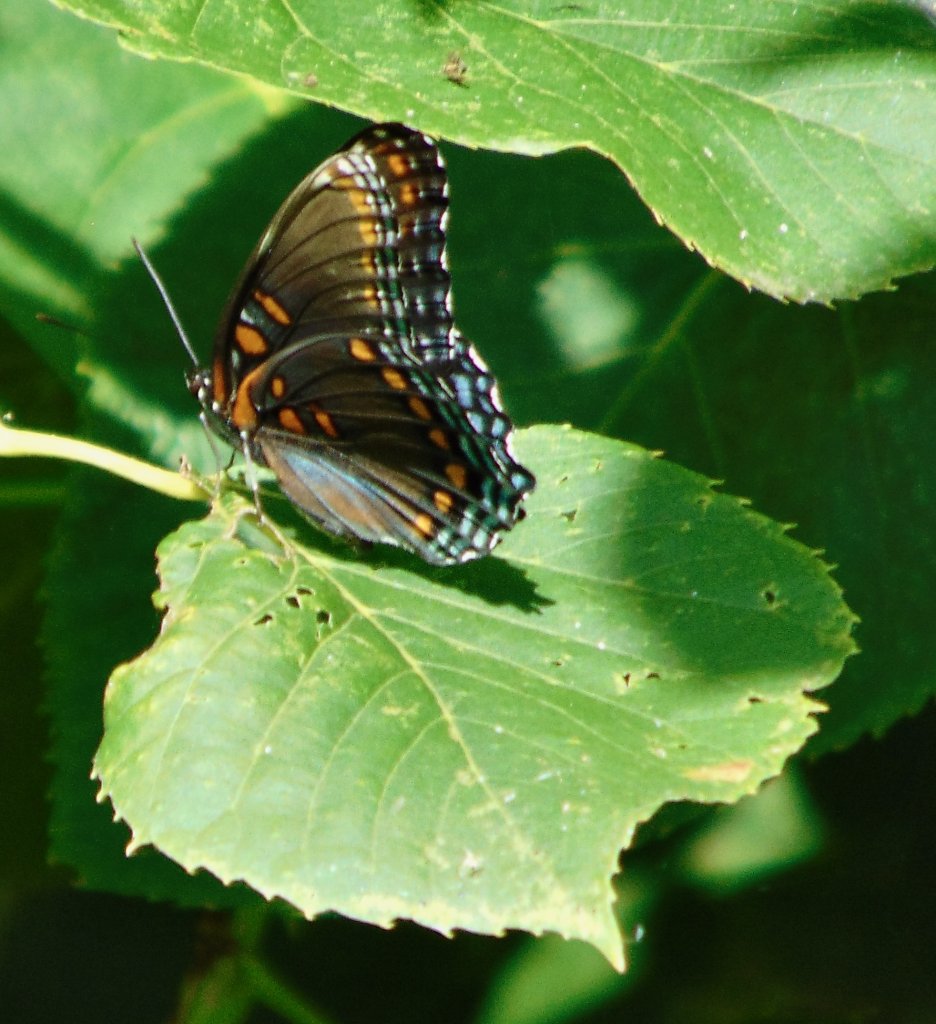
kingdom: Animalia
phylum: Arthropoda
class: Insecta
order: Lepidoptera
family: Nymphalidae
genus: Limenitis
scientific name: Limenitis astyanax
